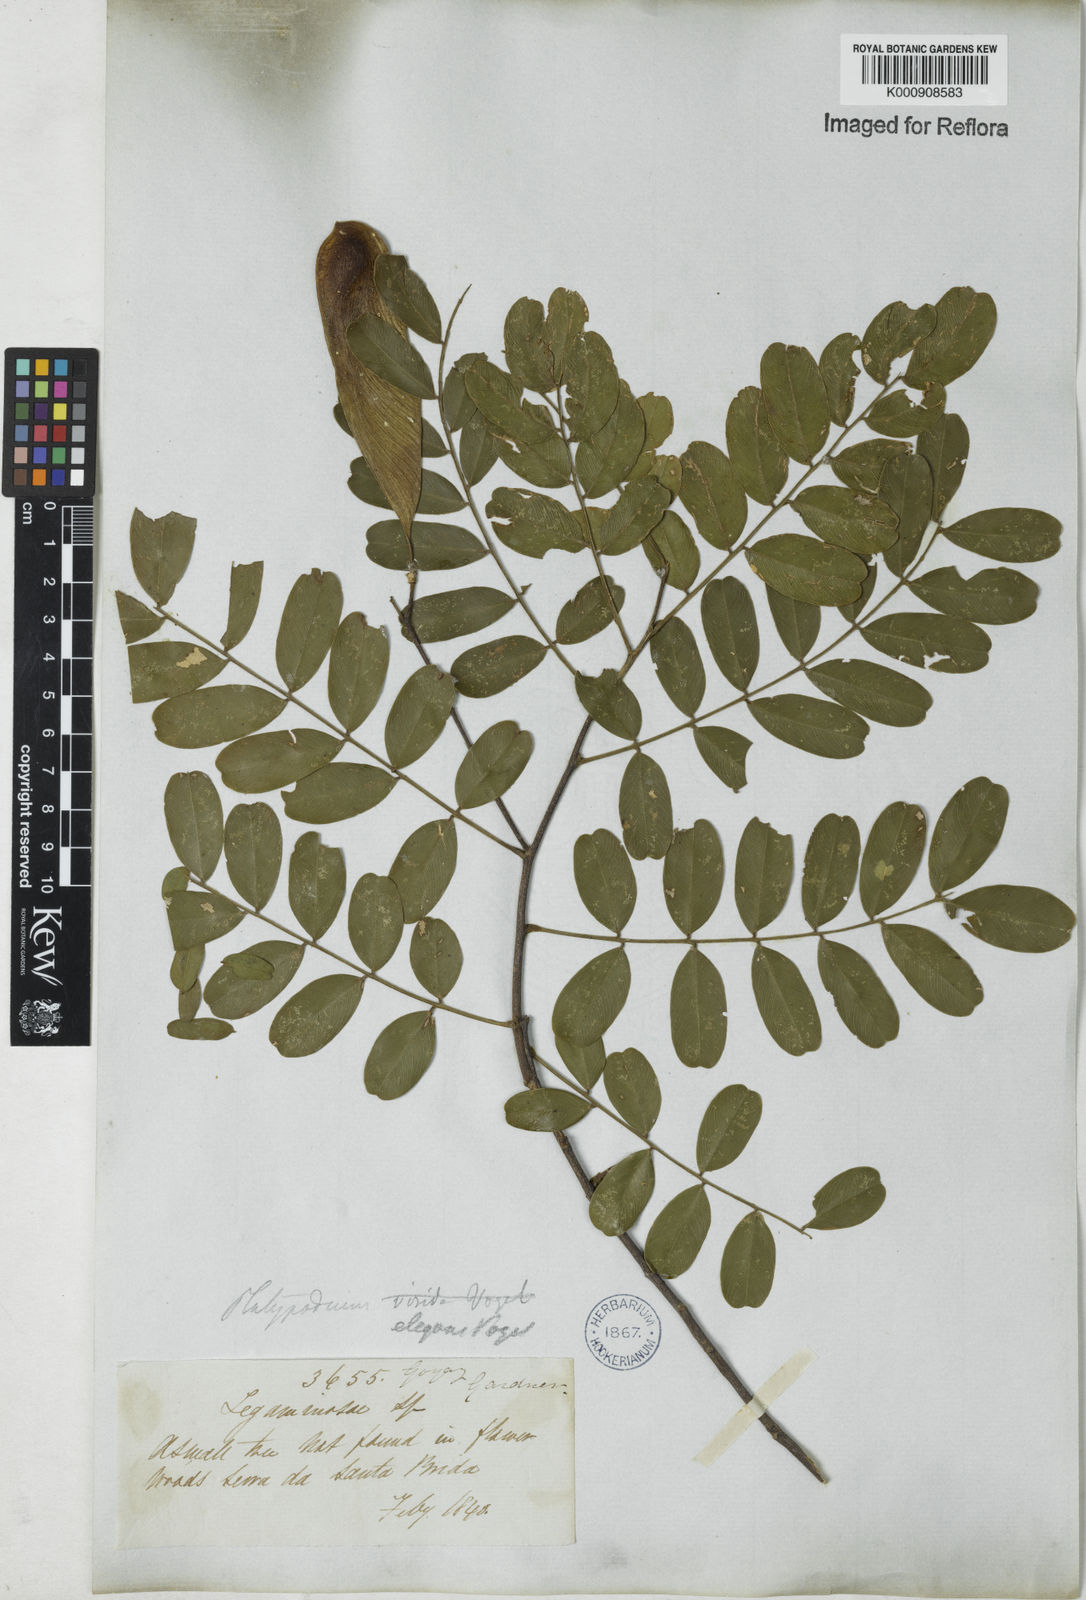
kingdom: Plantae
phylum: Tracheophyta
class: Magnoliopsida
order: Fabales
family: Fabaceae
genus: Platypodium
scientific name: Platypodium
